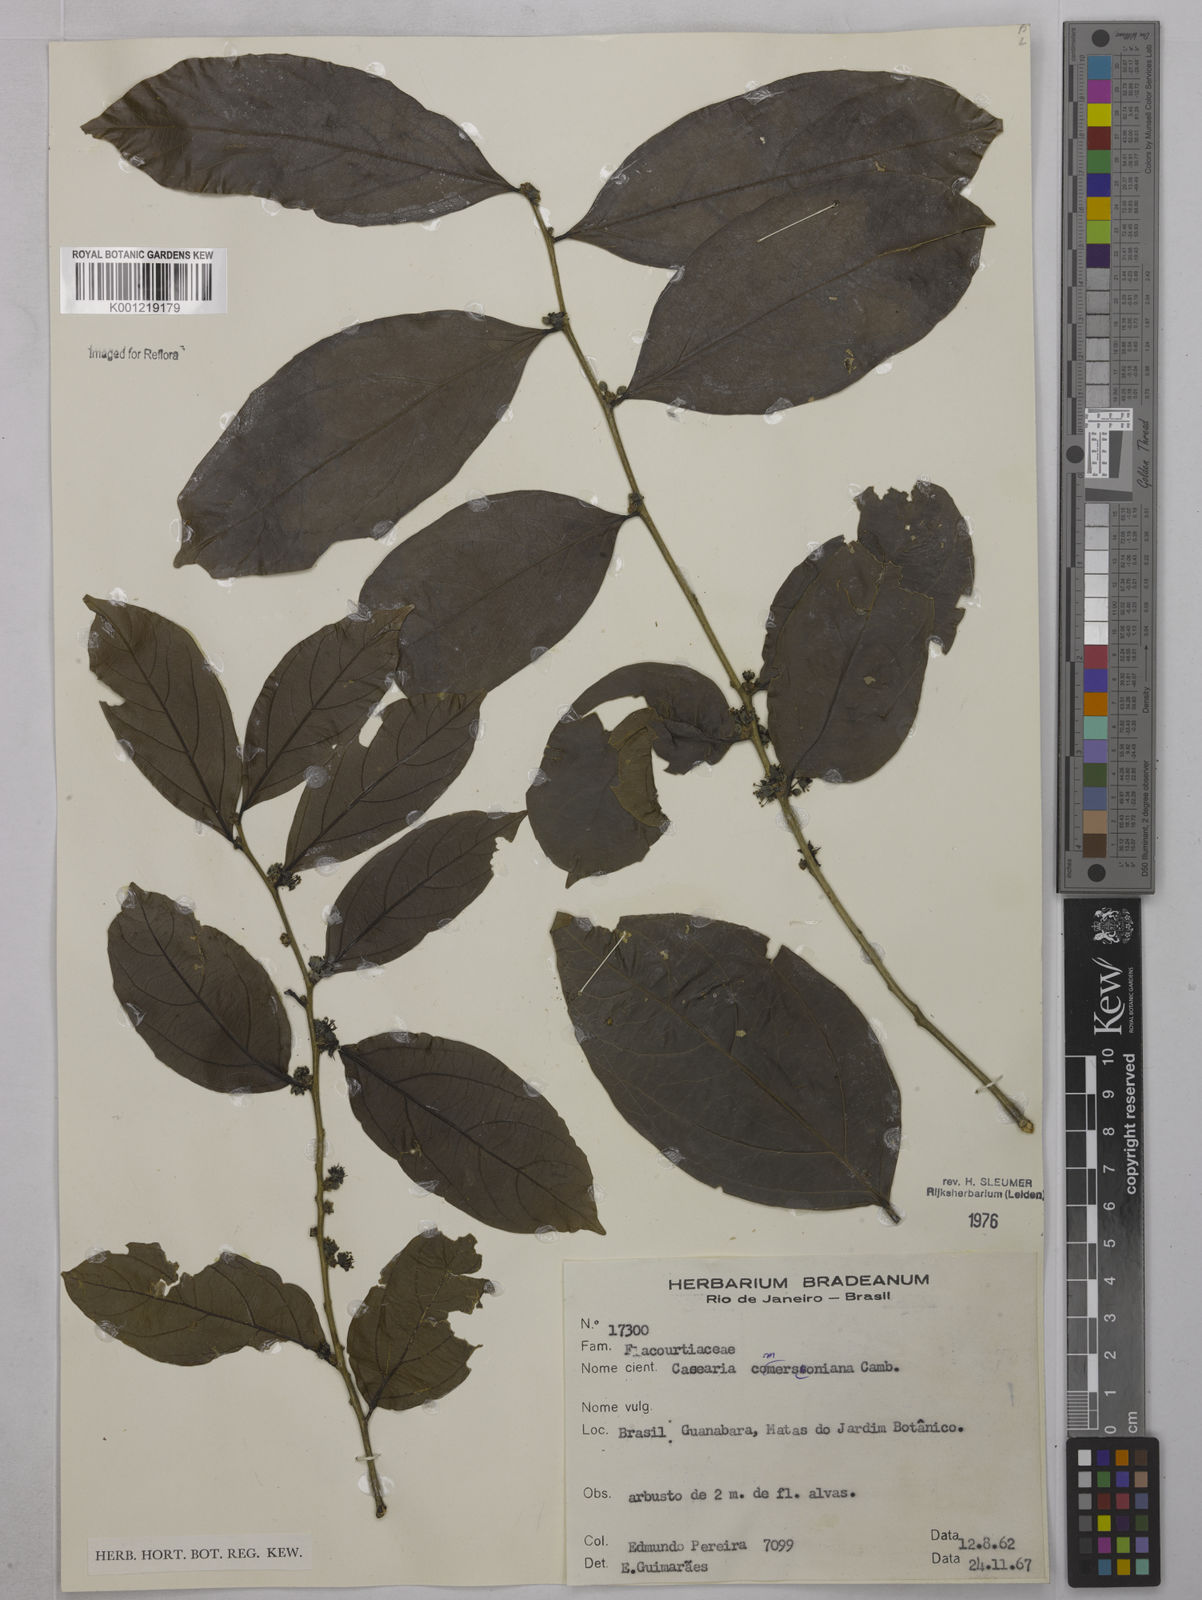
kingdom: Plantae
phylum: Tracheophyta
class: Magnoliopsida
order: Malpighiales
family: Salicaceae
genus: Piparea
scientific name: Piparea dentata
